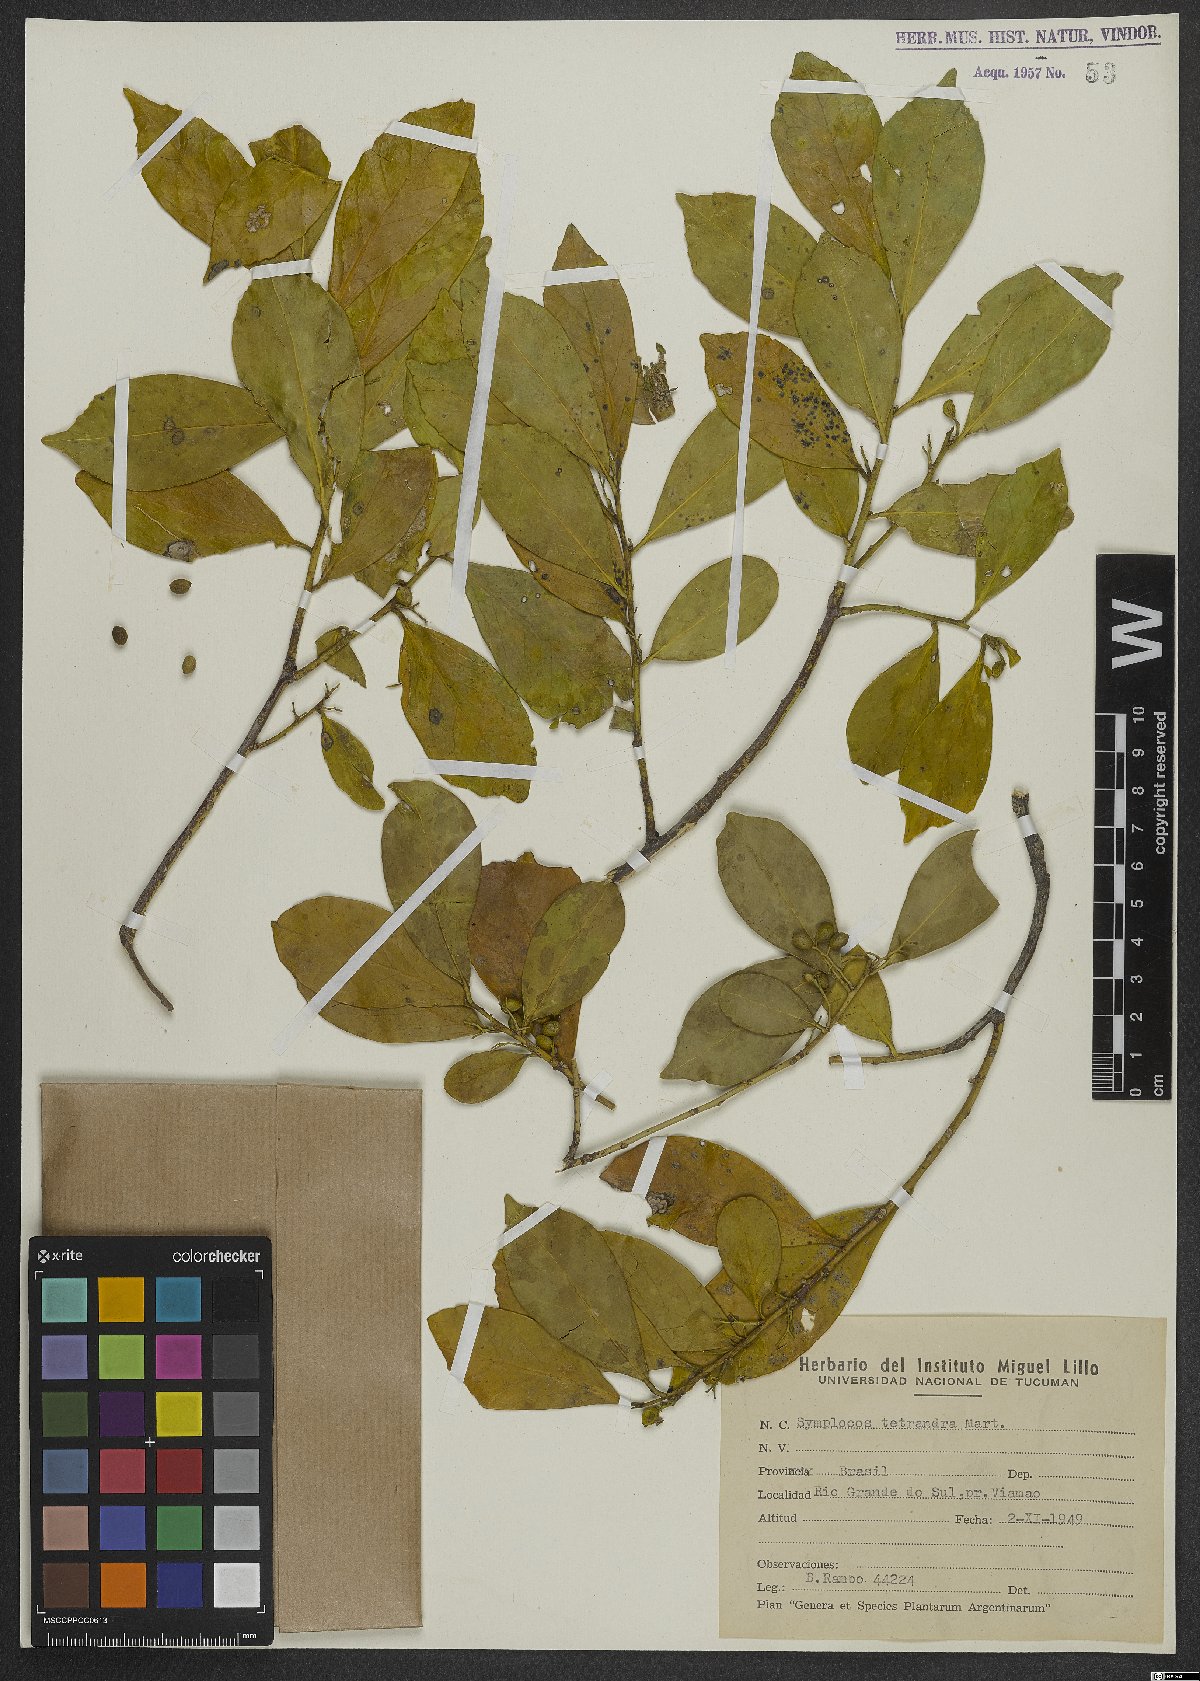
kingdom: Plantae
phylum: Tracheophyta
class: Magnoliopsida
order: Ericales
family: Symplocaceae
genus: Symplocos
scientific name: Symplocos tetrandra
